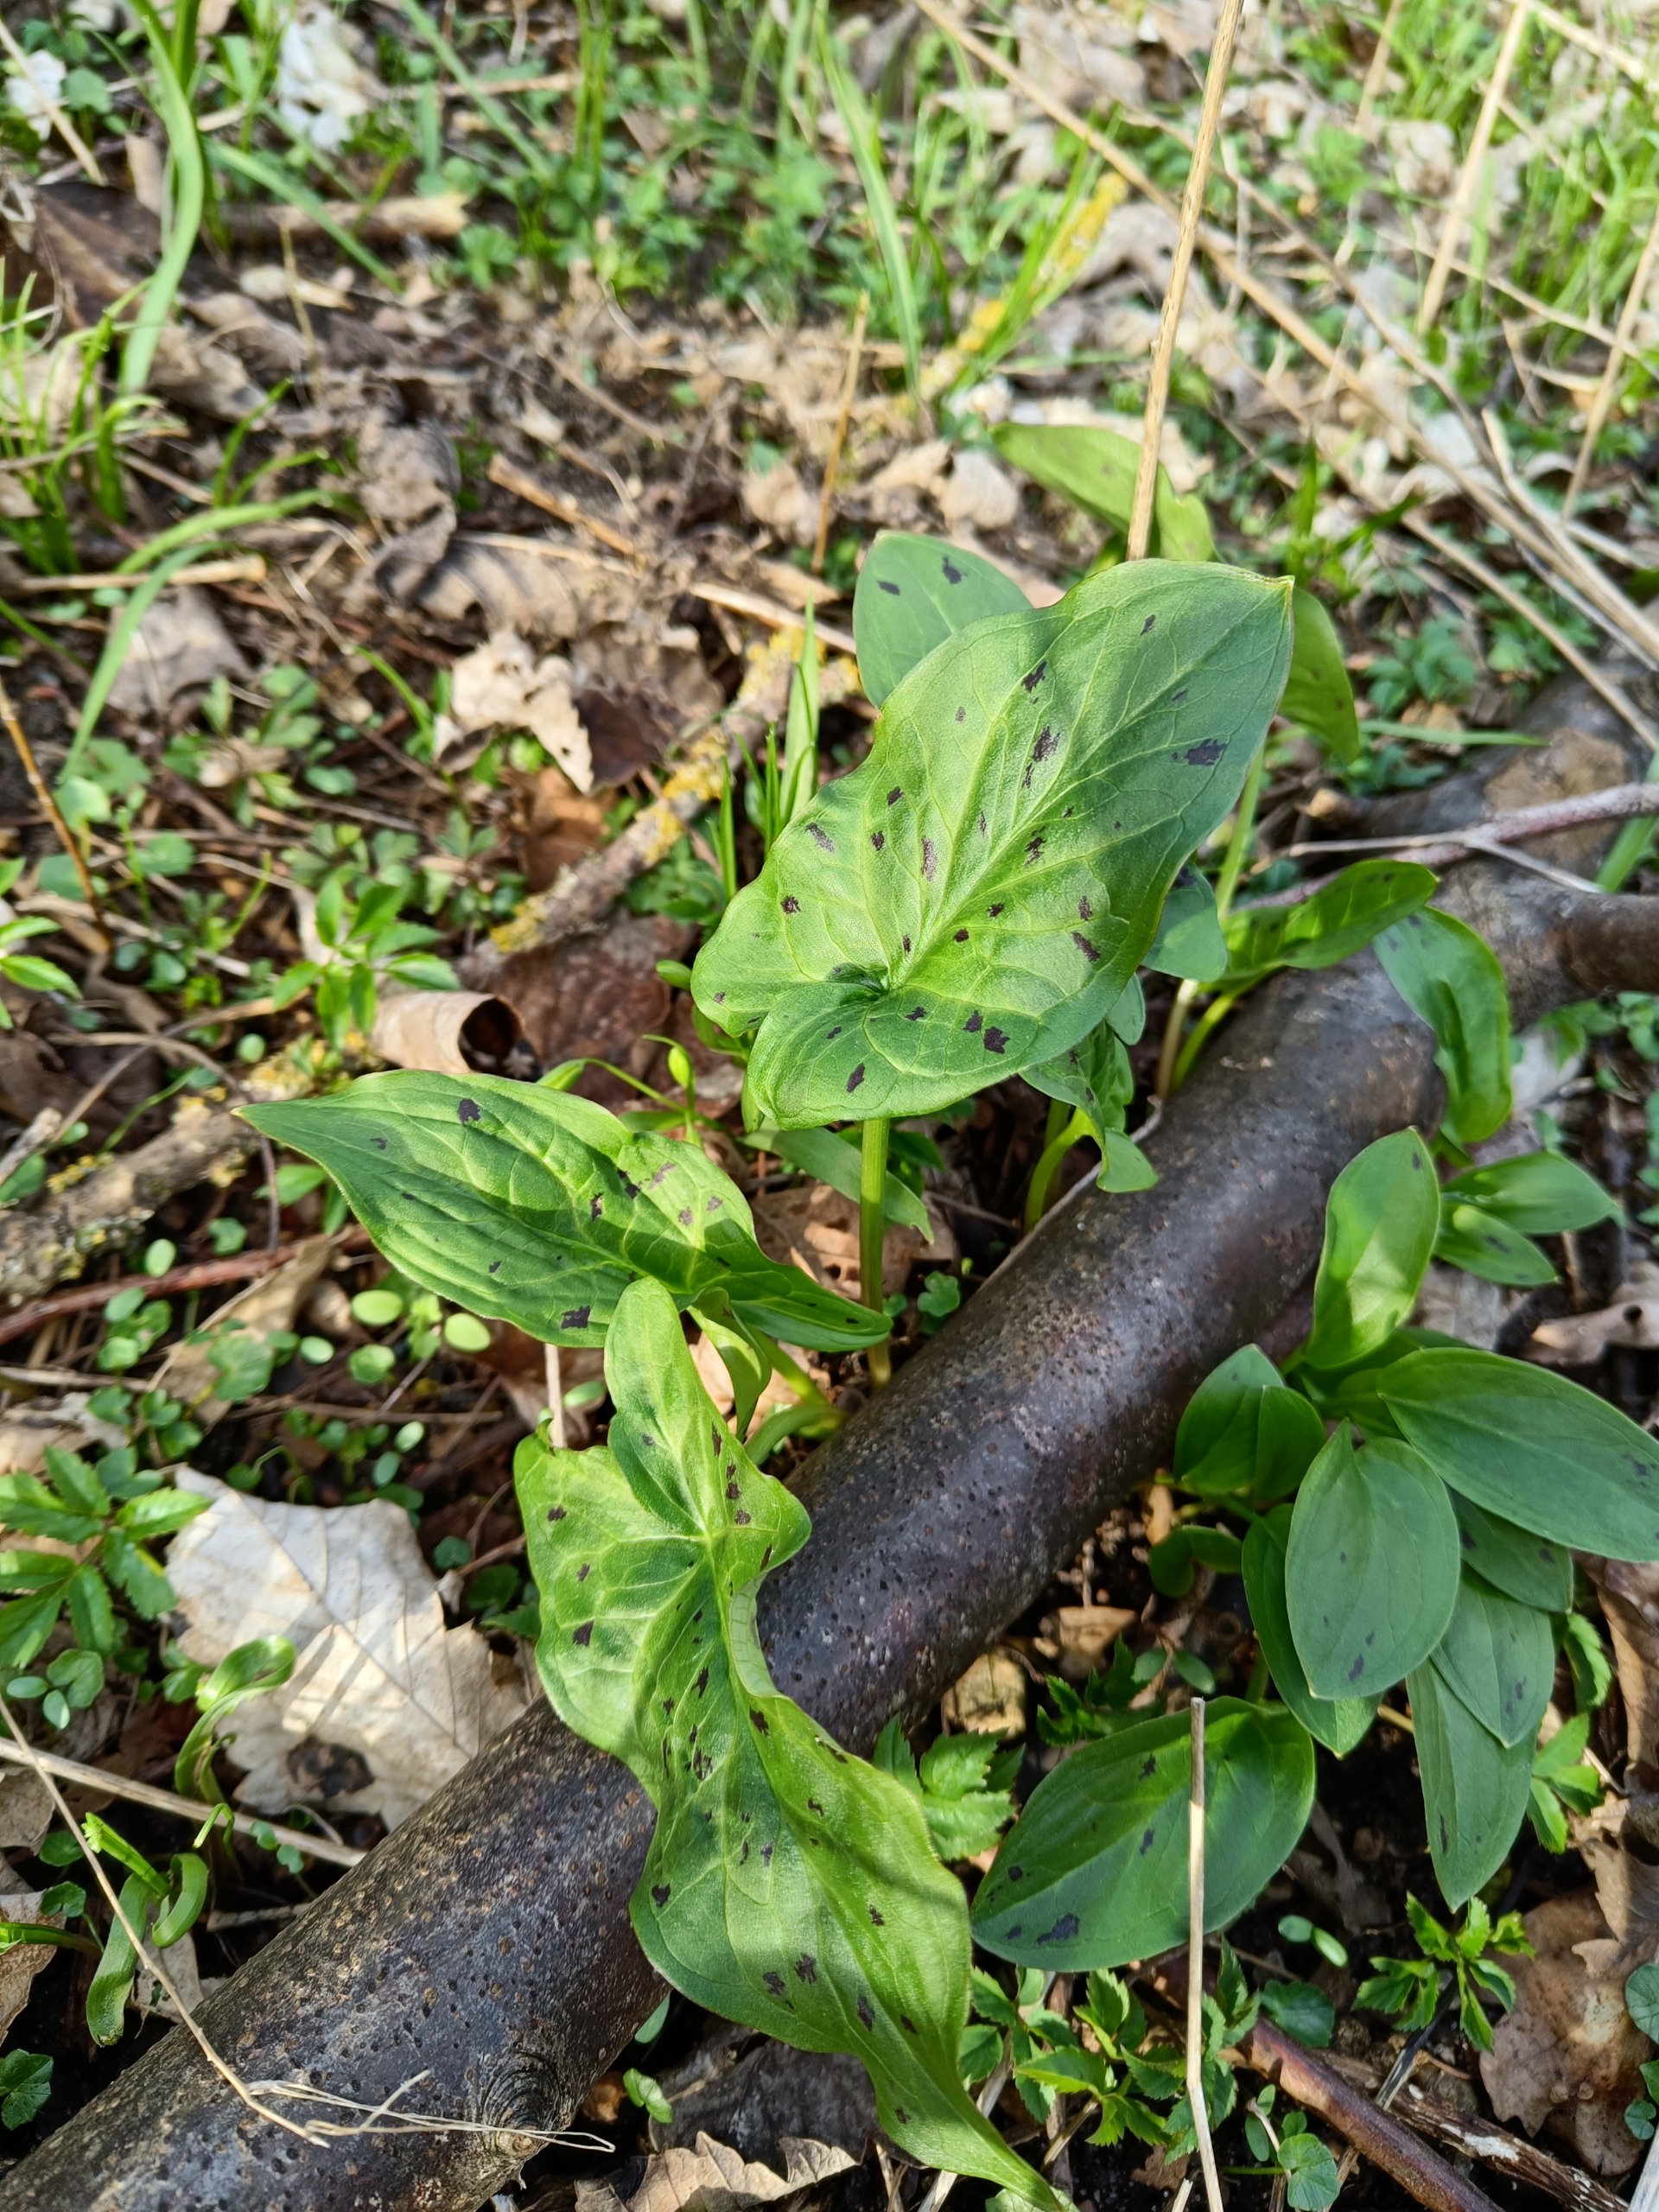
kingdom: Plantae
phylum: Tracheophyta
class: Liliopsida
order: Alismatales
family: Araceae
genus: Arum
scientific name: Arum maculatum
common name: Plettet arum
